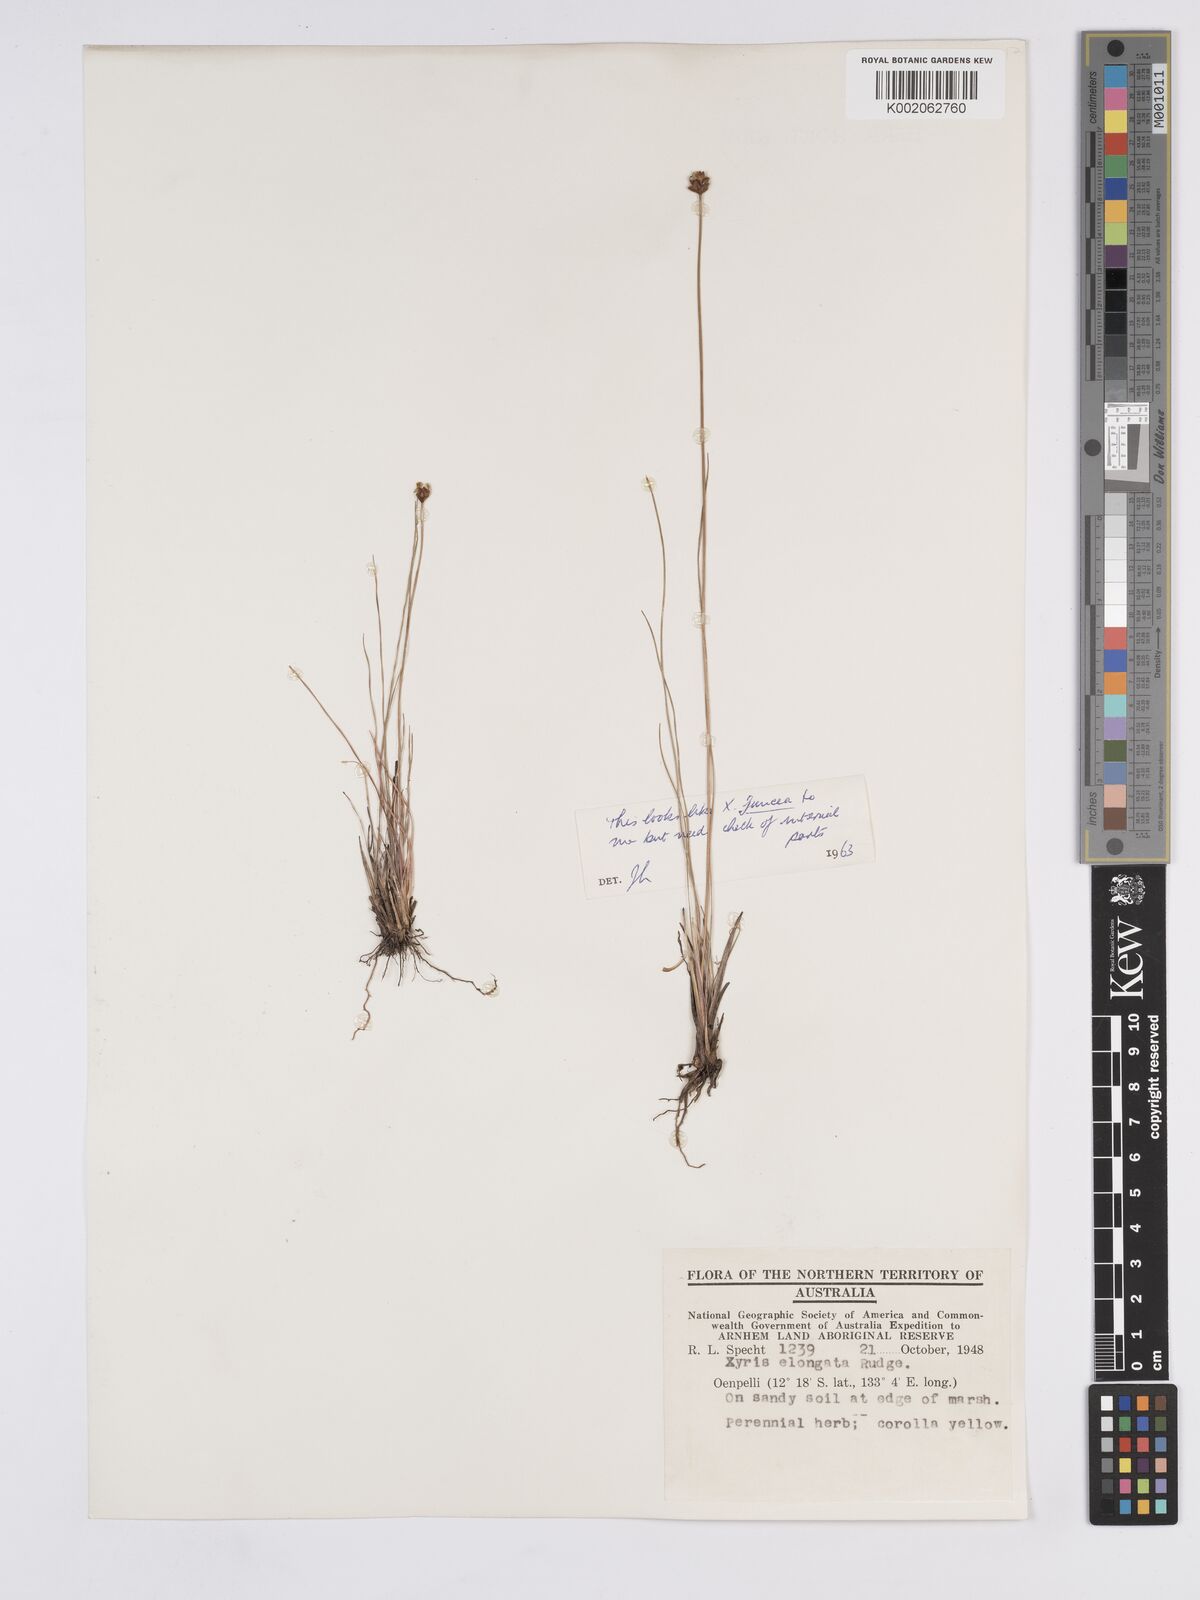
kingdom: Plantae
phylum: Tracheophyta
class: Liliopsida
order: Poales
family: Xyridaceae
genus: Xyris
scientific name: Xyris complanata
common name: Hawai'i yelloweyed grass
